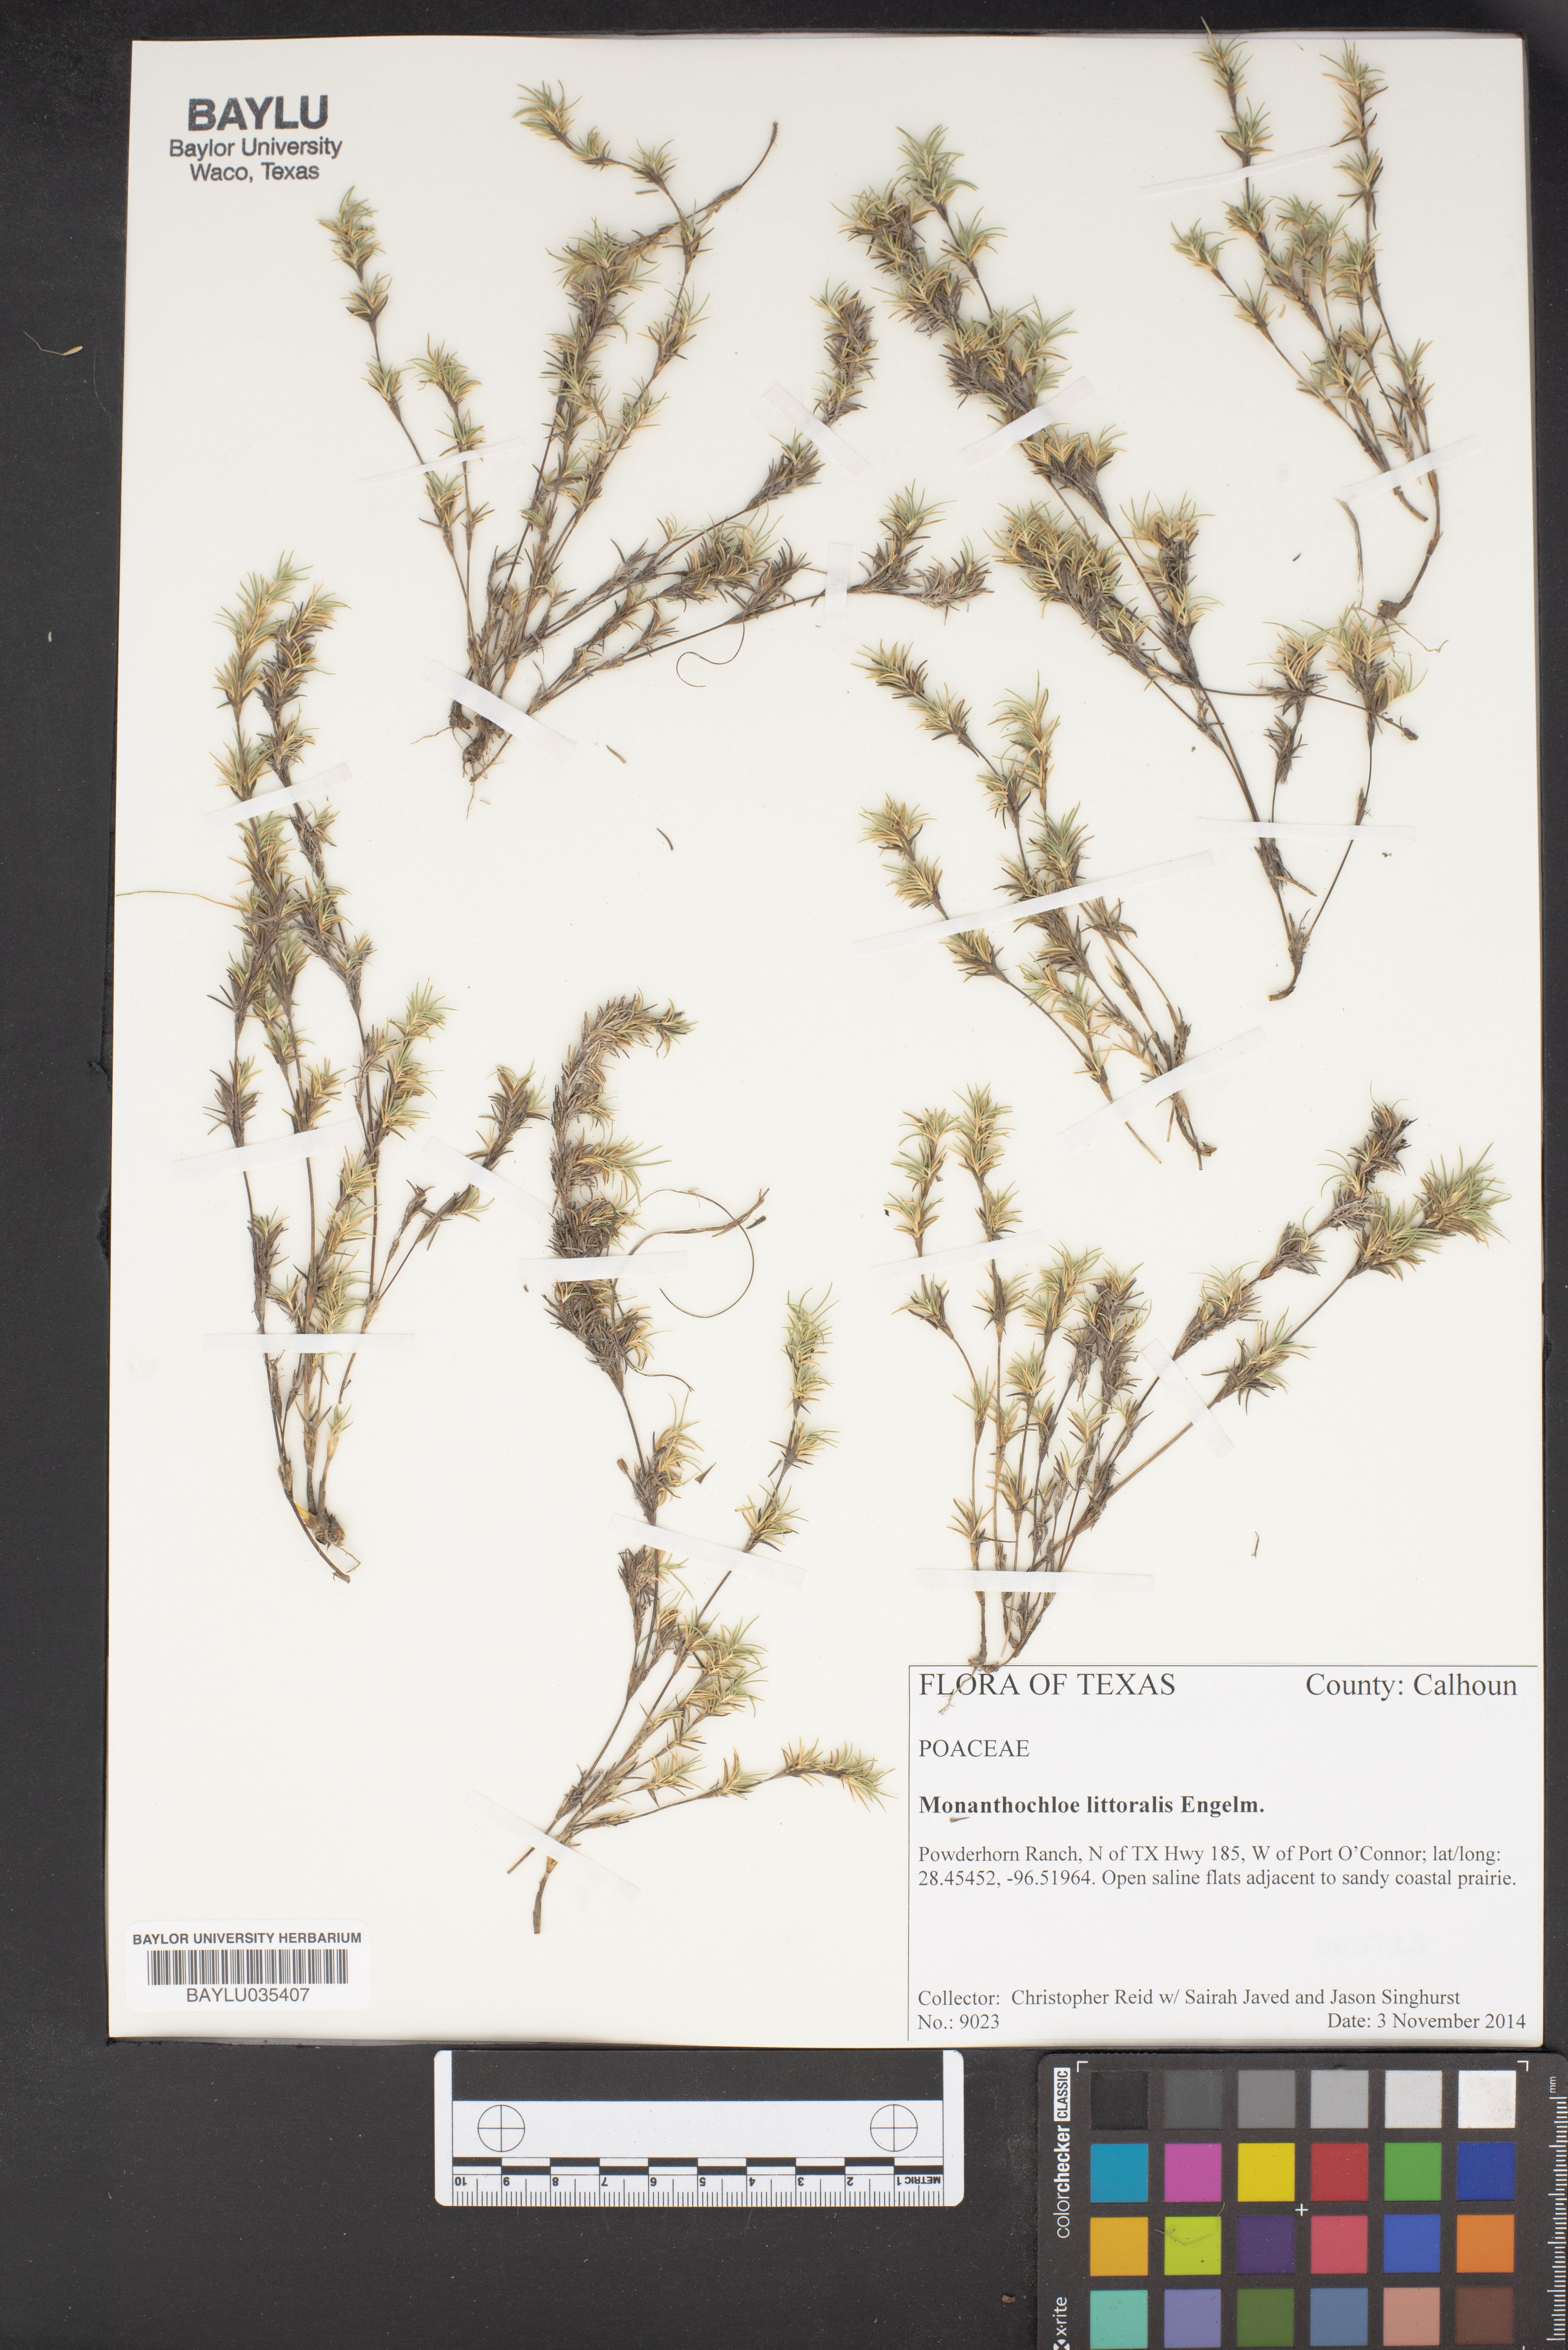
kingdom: Plantae
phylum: Tracheophyta
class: Liliopsida
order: Poales
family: Poaceae
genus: Distichlis
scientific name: Distichlis littoralis
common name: Shore grass
